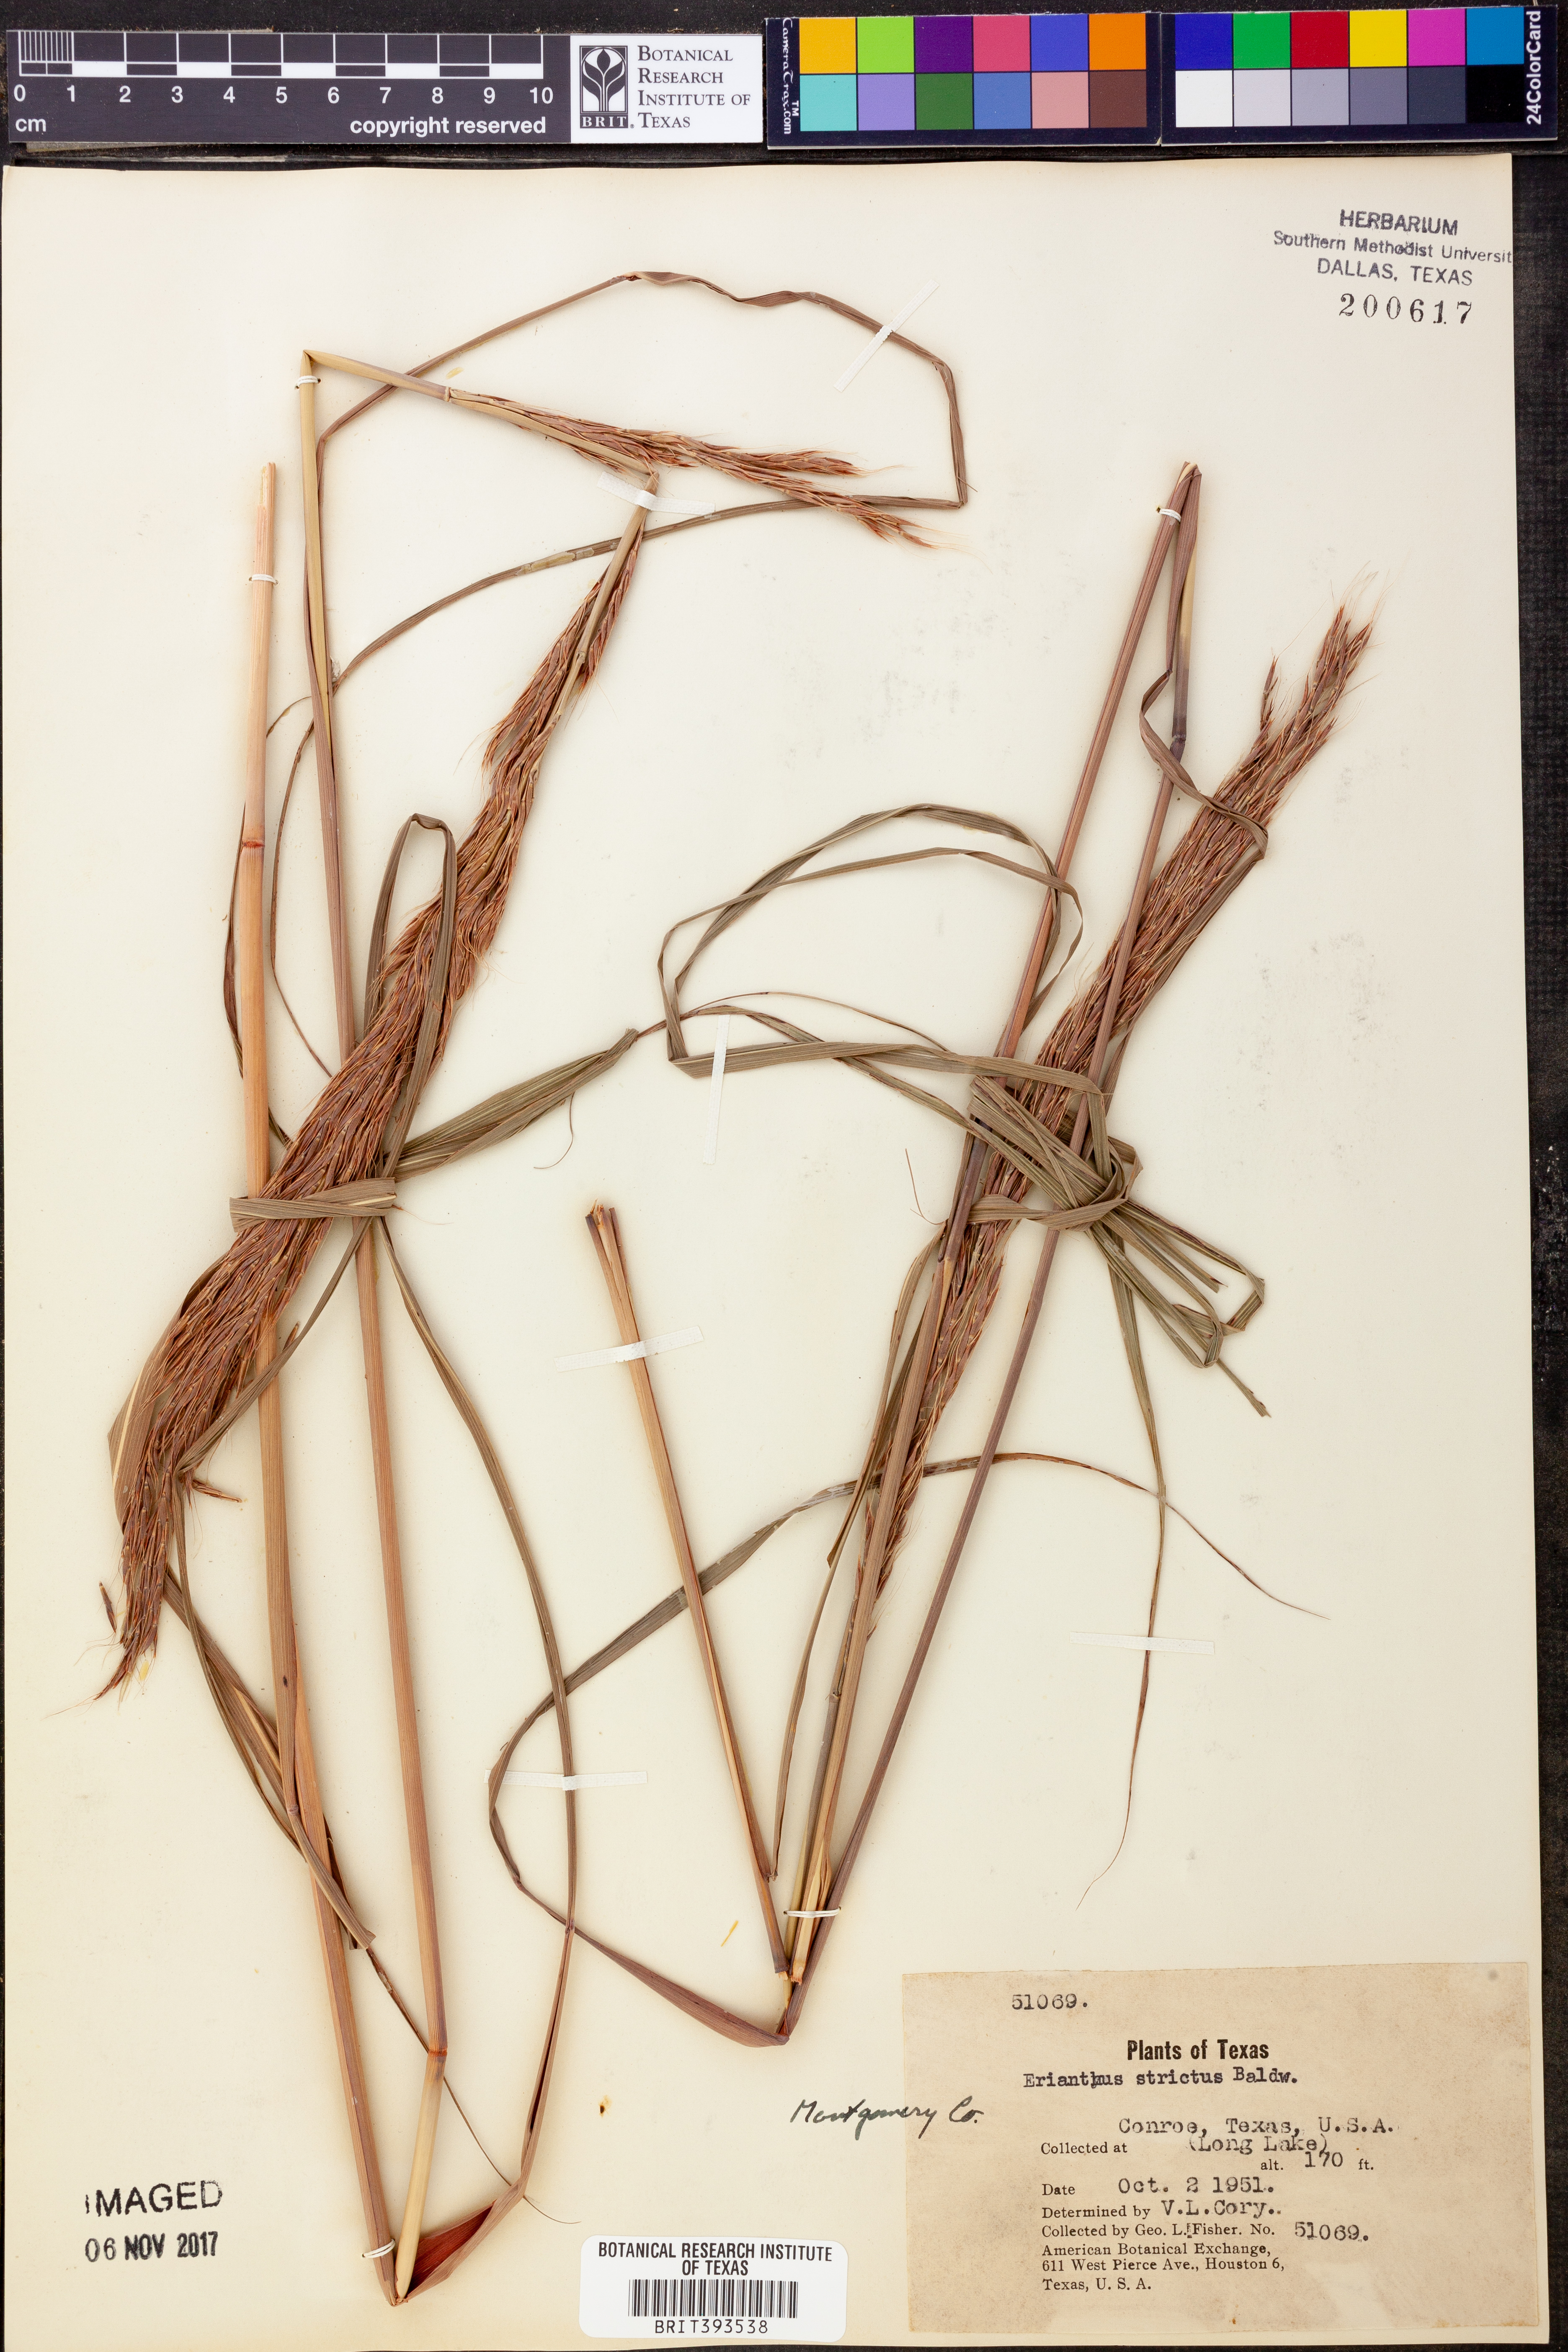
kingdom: Plantae
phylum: Tracheophyta
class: Liliopsida
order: Poales
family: Poaceae
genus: Erianthus
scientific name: Erianthus strictus
